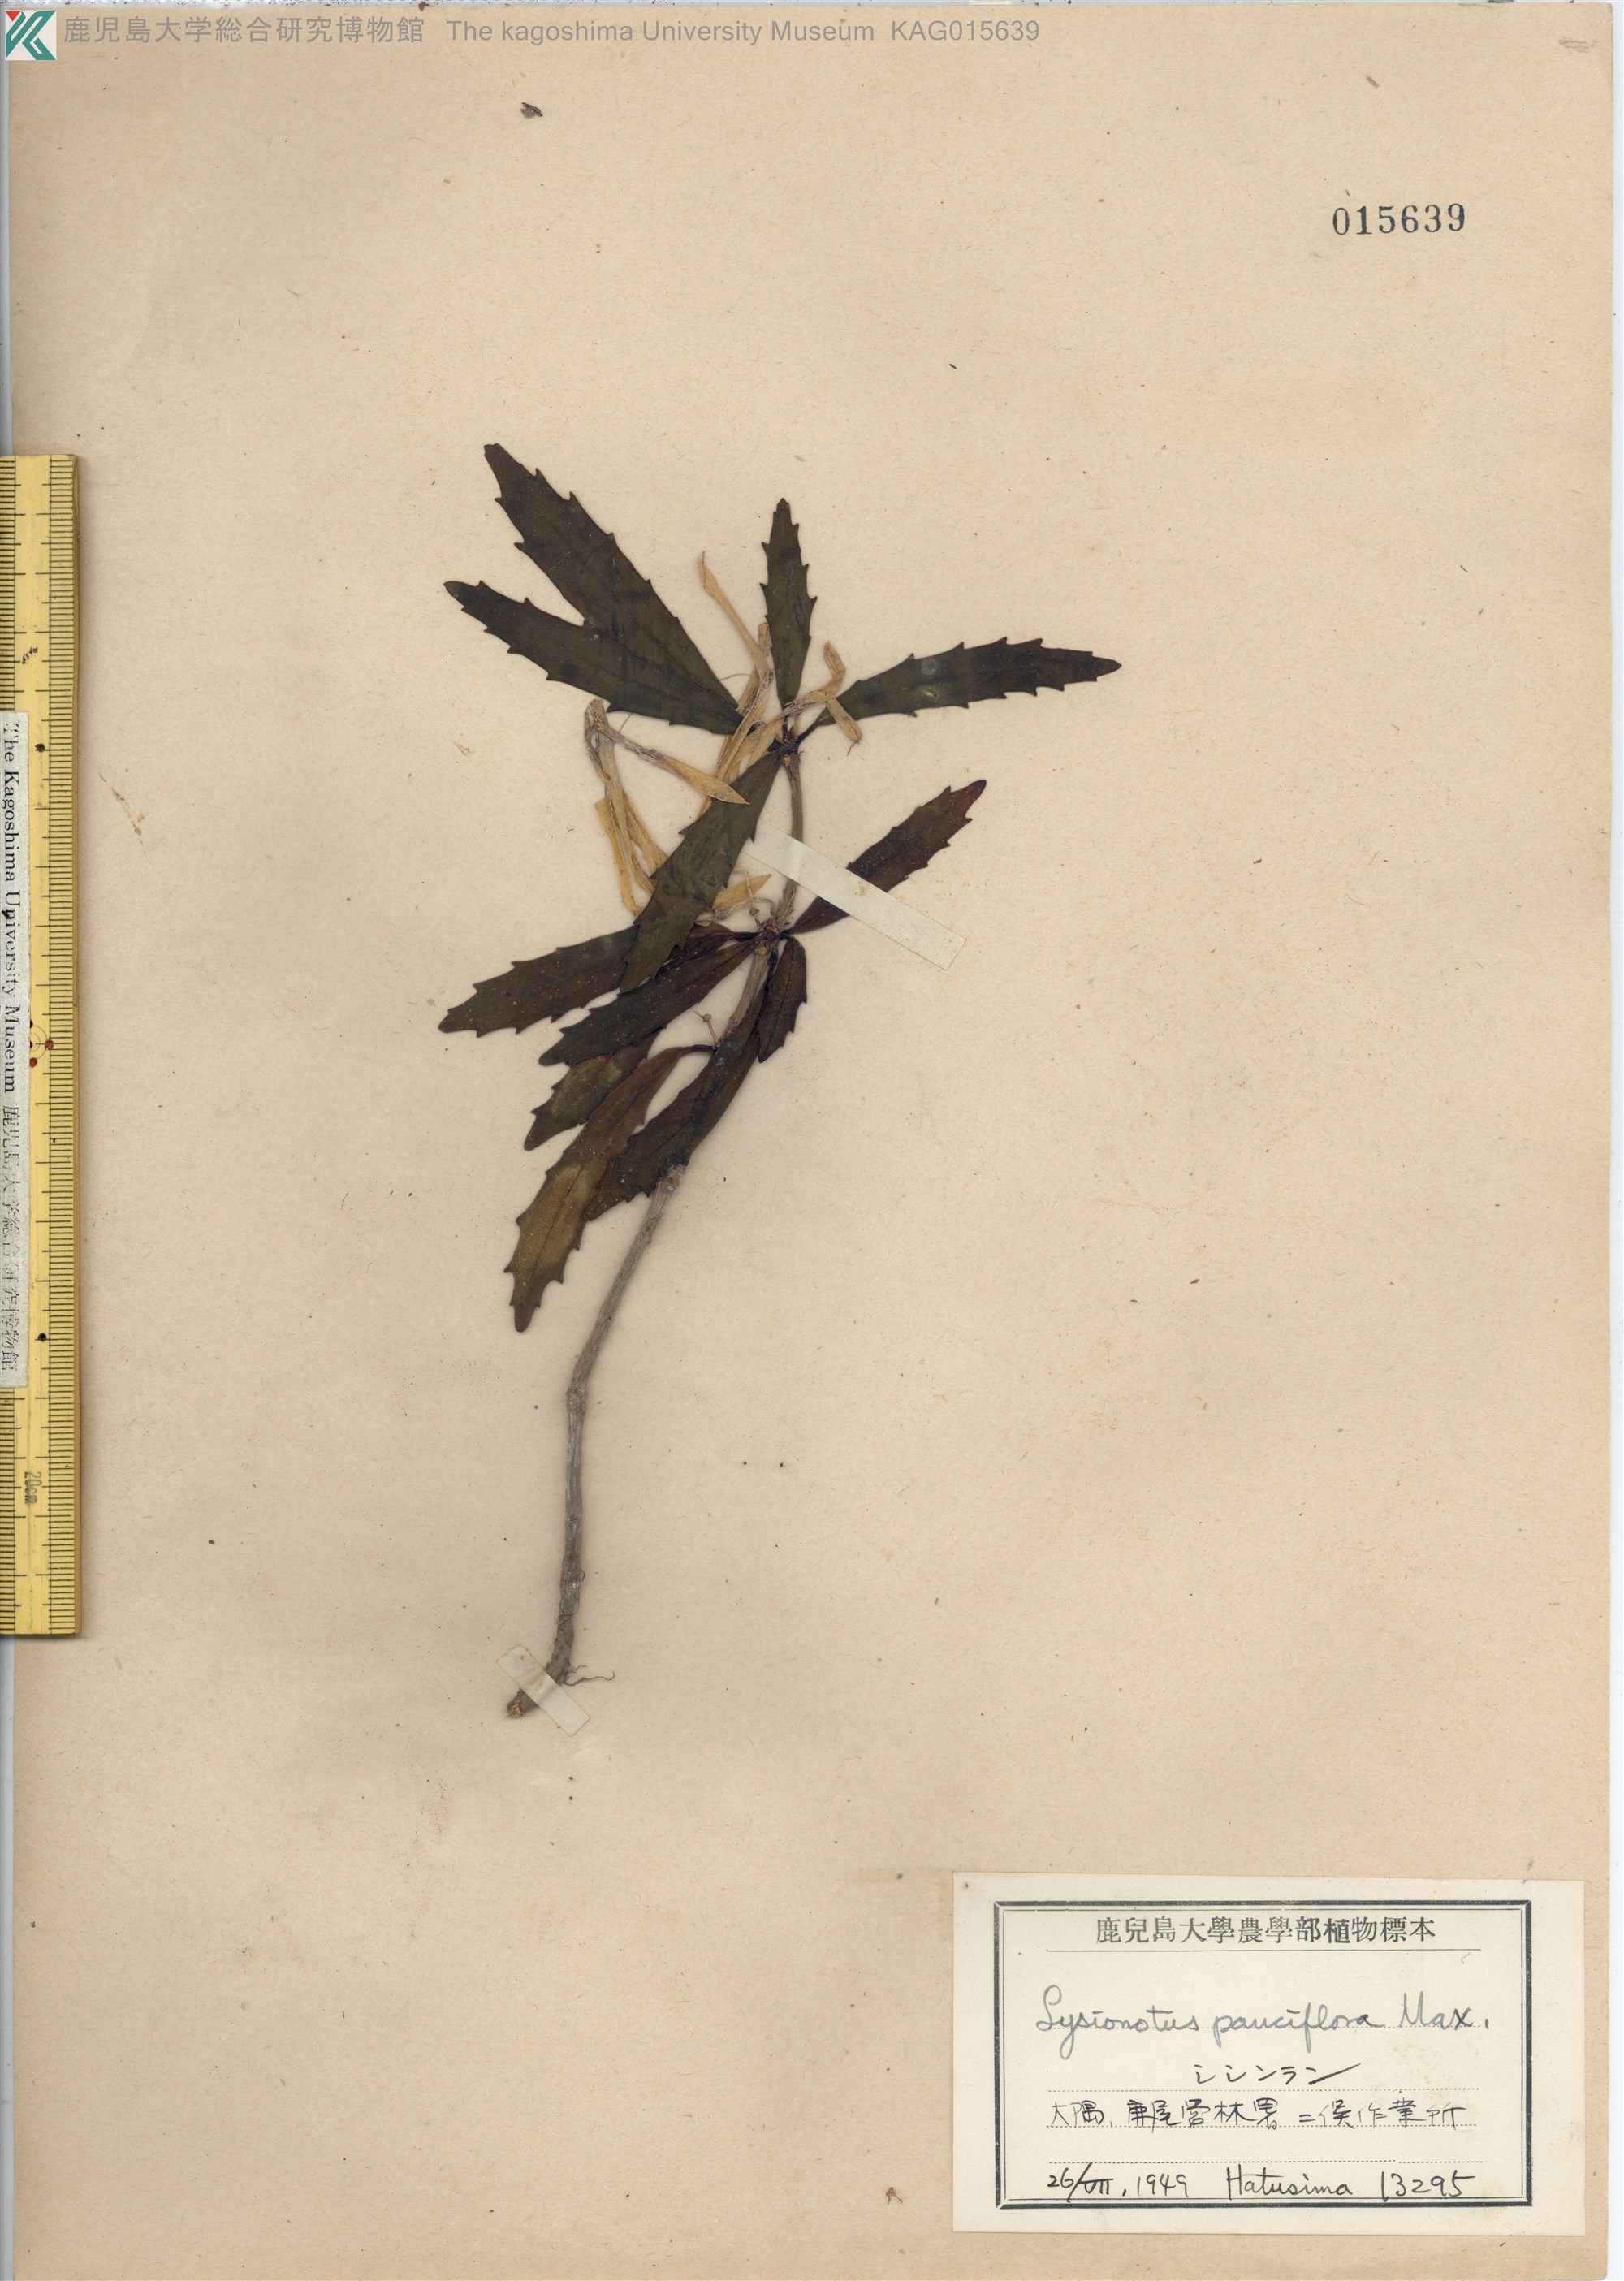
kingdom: Plantae
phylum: Tracheophyta
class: Magnoliopsida
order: Lamiales
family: Gesneriaceae
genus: Lysionotus
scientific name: Lysionotus pauciflorus
